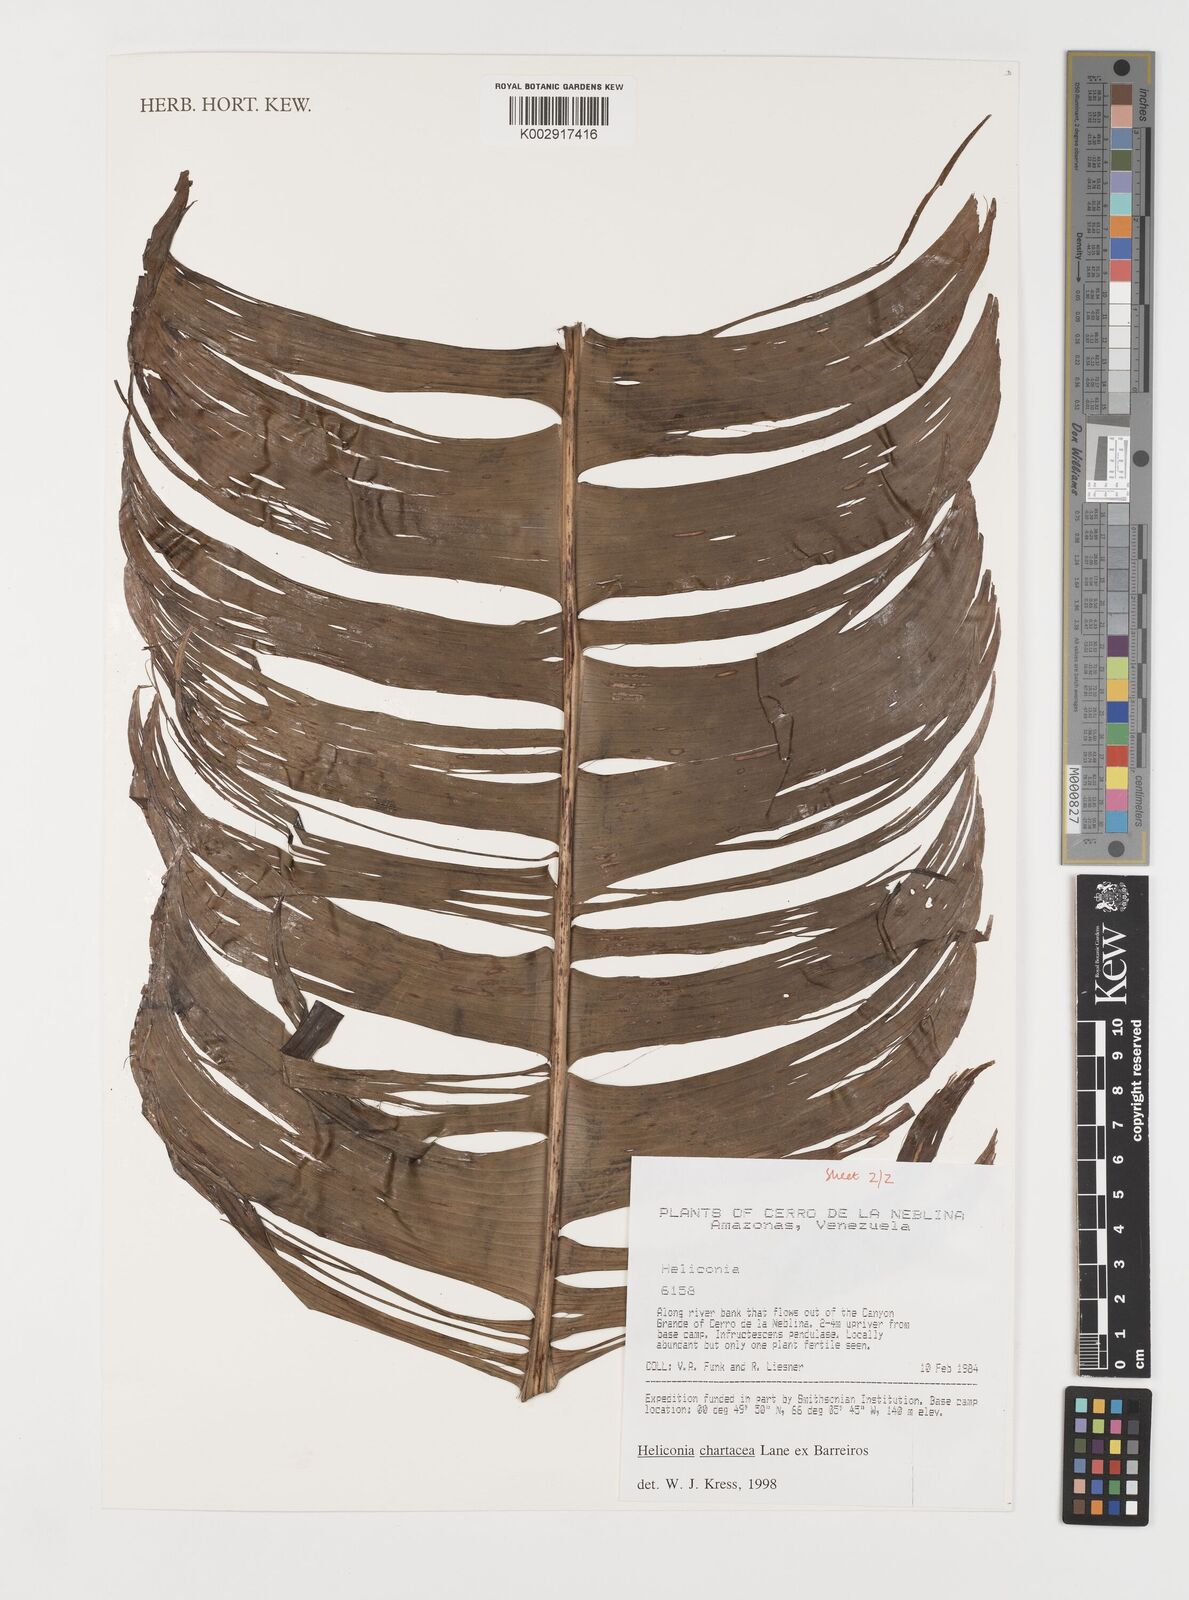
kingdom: Plantae
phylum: Tracheophyta
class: Liliopsida
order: Zingiberales
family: Heliconiaceae
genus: Heliconia
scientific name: Heliconia chartacea
